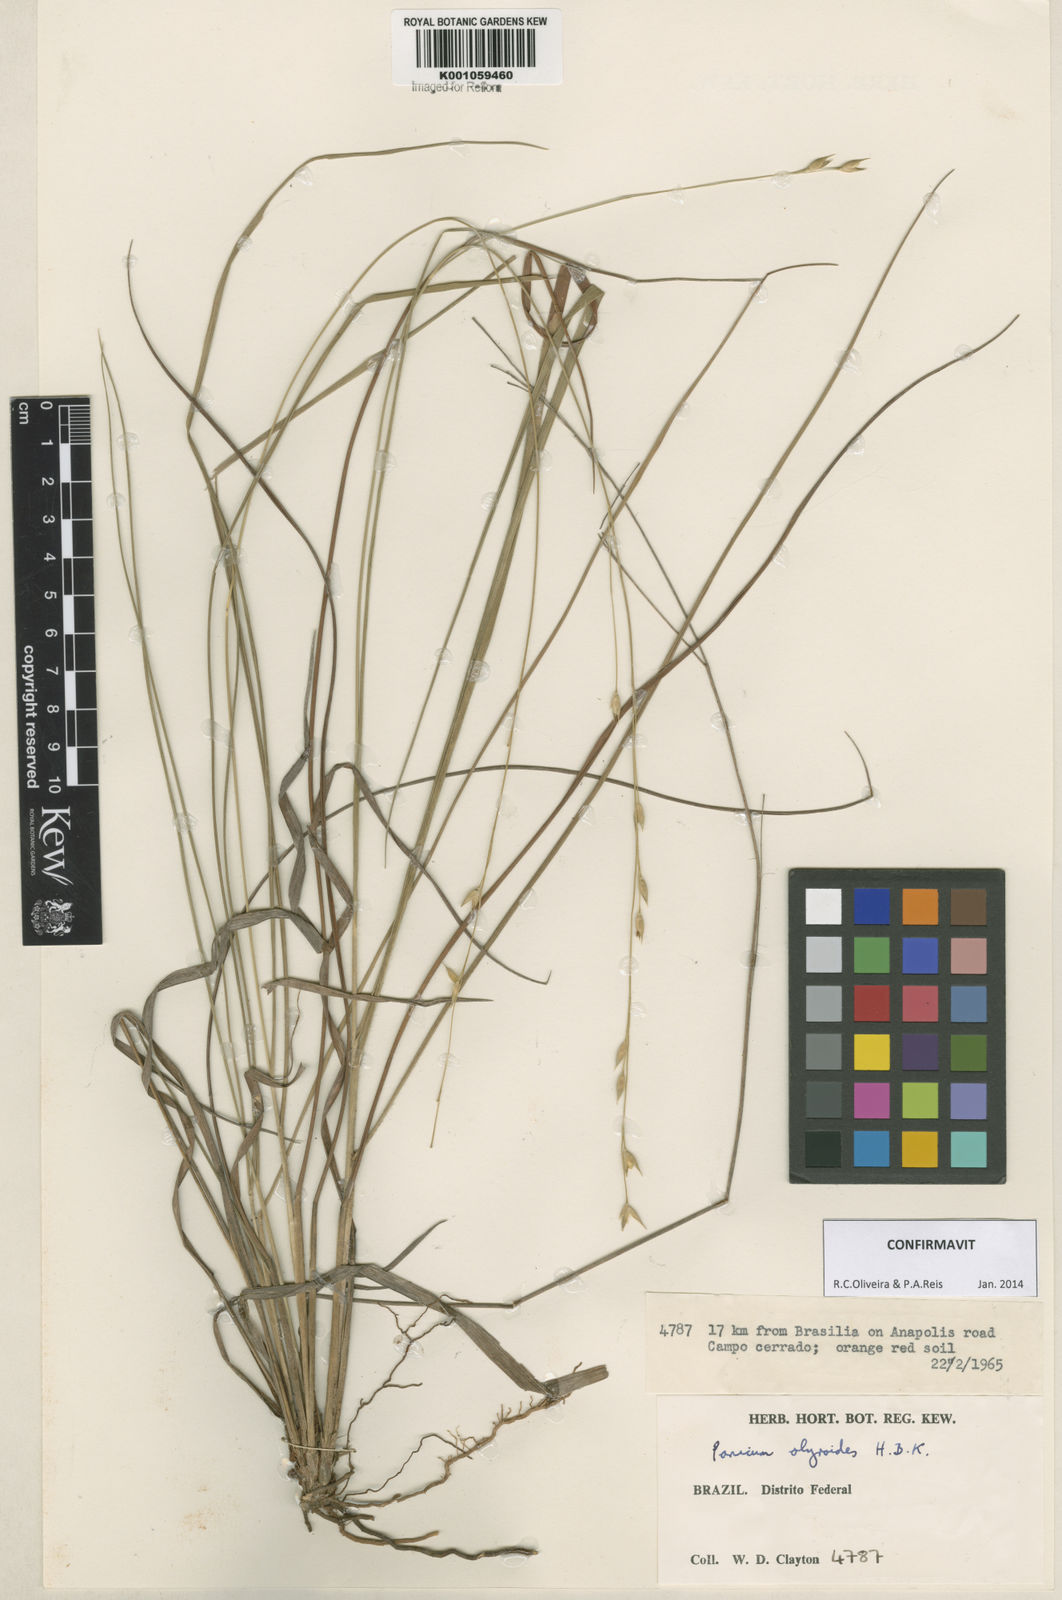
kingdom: Plantae
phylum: Tracheophyta
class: Liliopsida
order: Poales
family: Poaceae
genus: Panicum
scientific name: Panicum olyroides
